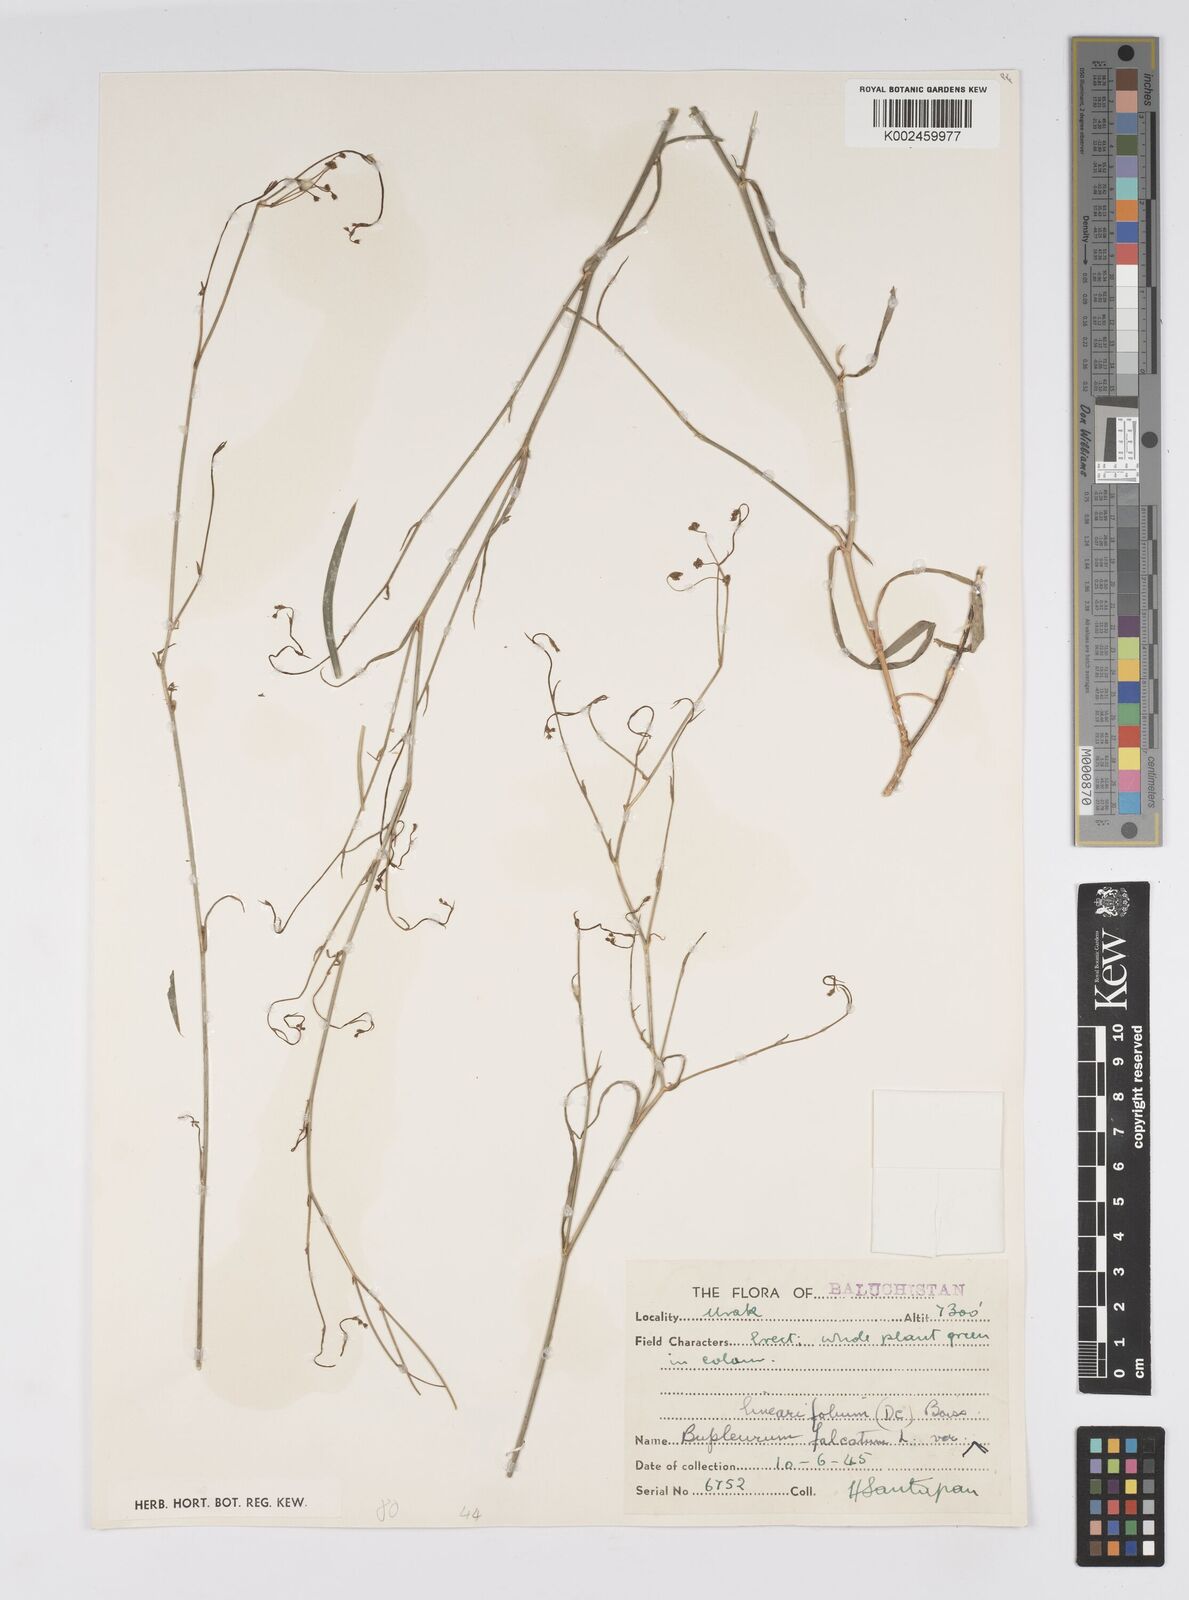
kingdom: Plantae
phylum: Tracheophyta
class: Magnoliopsida
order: Apiales
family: Apiaceae
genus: Bupleurum
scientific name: Bupleurum falcatum
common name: Sickle-leaved hare's-ear
